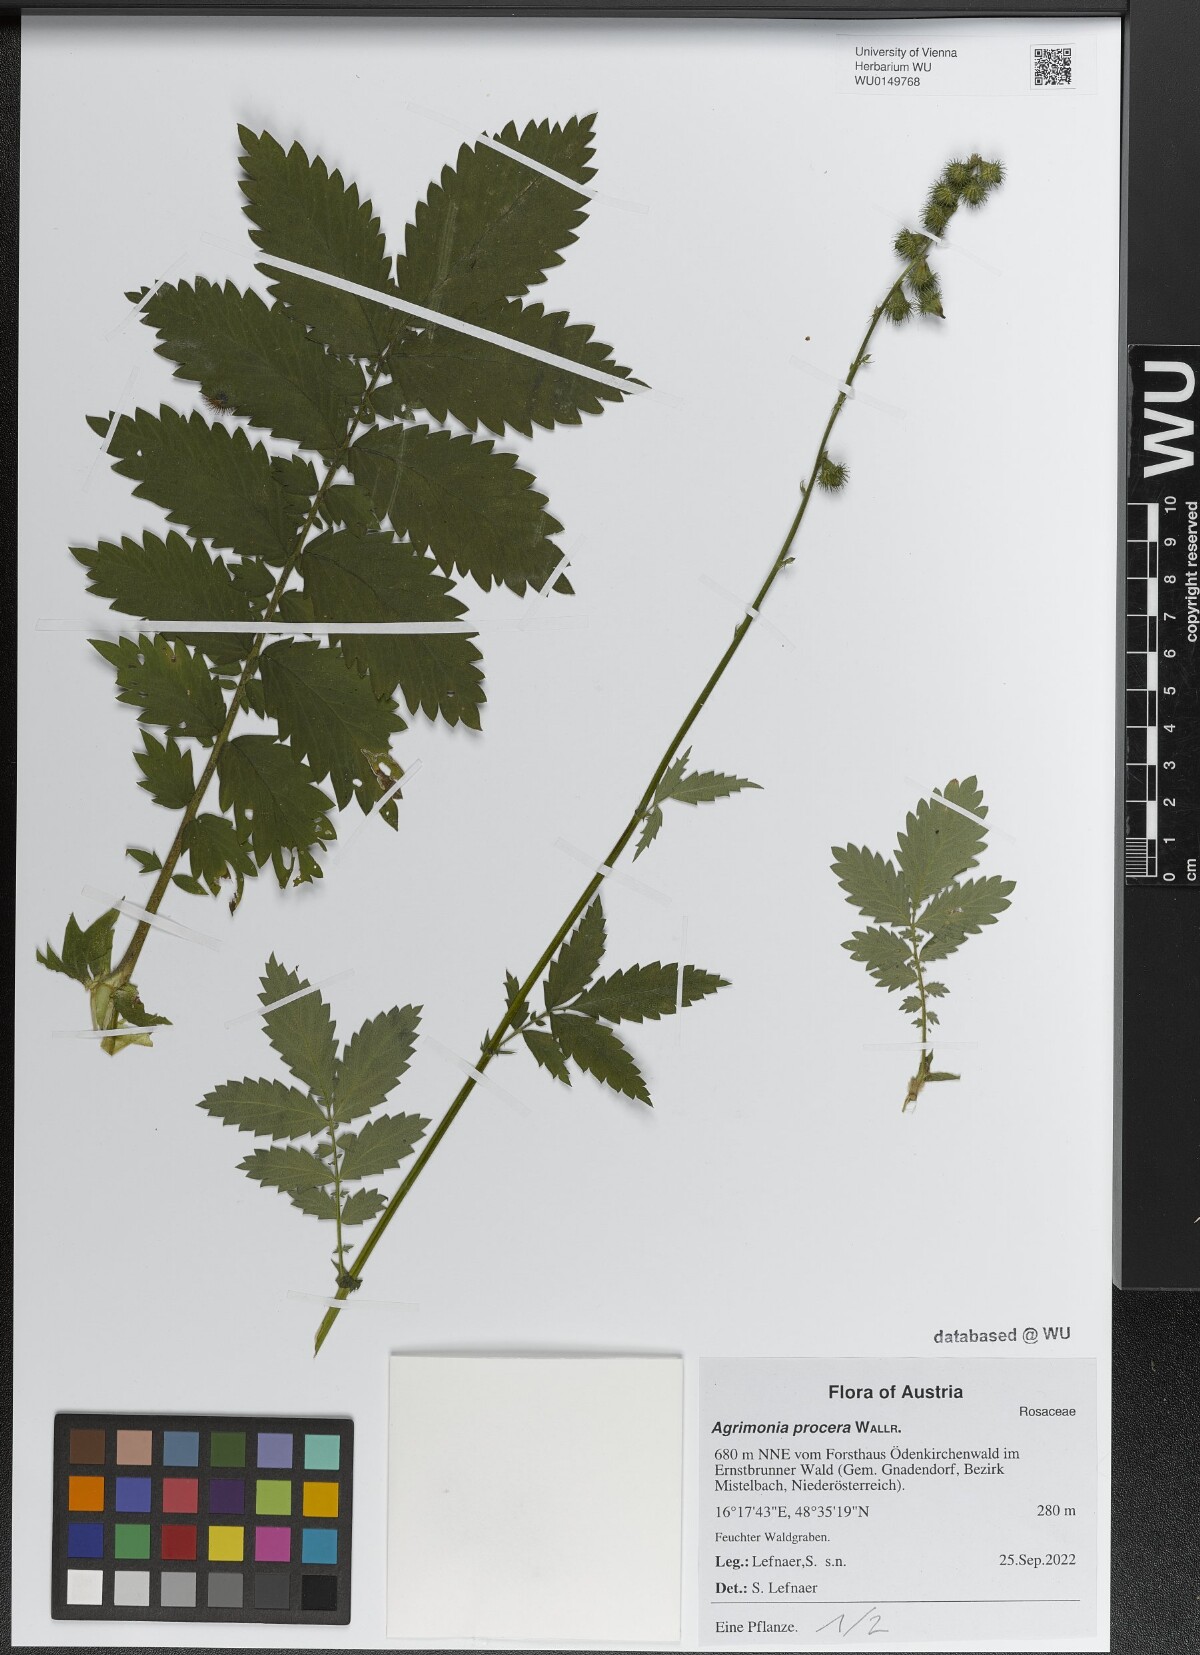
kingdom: Plantae
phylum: Tracheophyta
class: Magnoliopsida
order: Rosales
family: Rosaceae
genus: Agrimonia
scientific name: Agrimonia procera
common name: Fragrant agrimony
